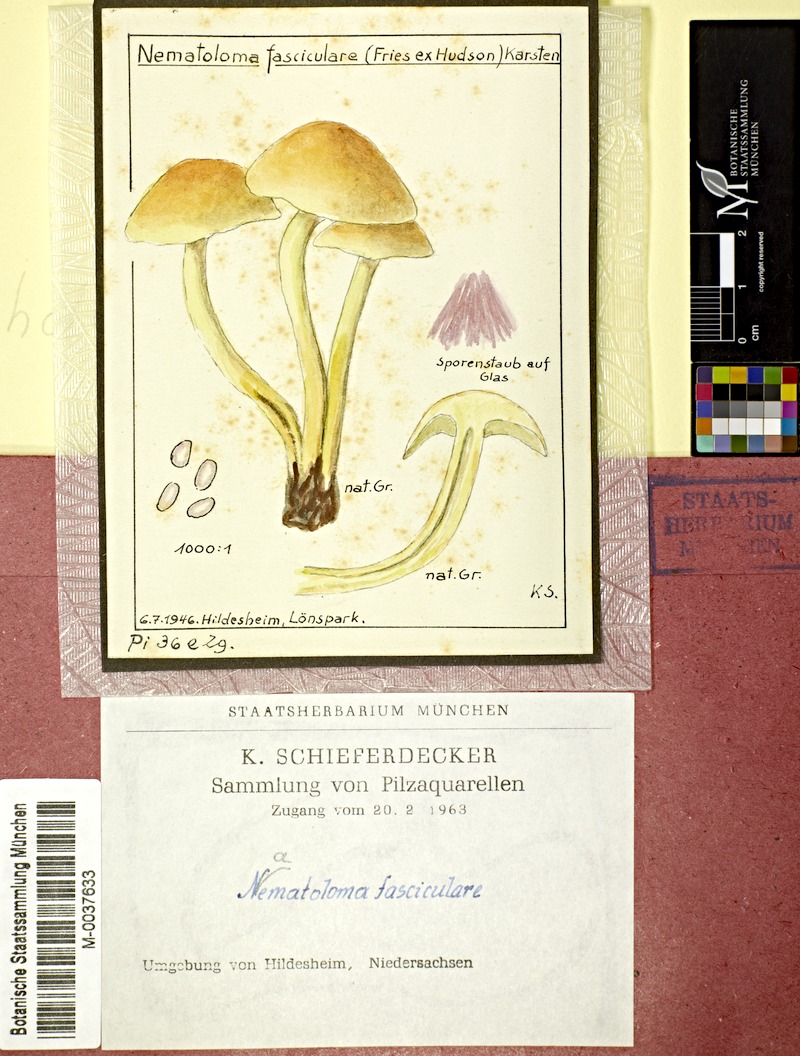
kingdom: Fungi
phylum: Basidiomycota
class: Agaricomycetes
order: Agaricales
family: Strophariaceae
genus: Hypholoma
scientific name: Hypholoma fasciculare
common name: Sulphur tuft
